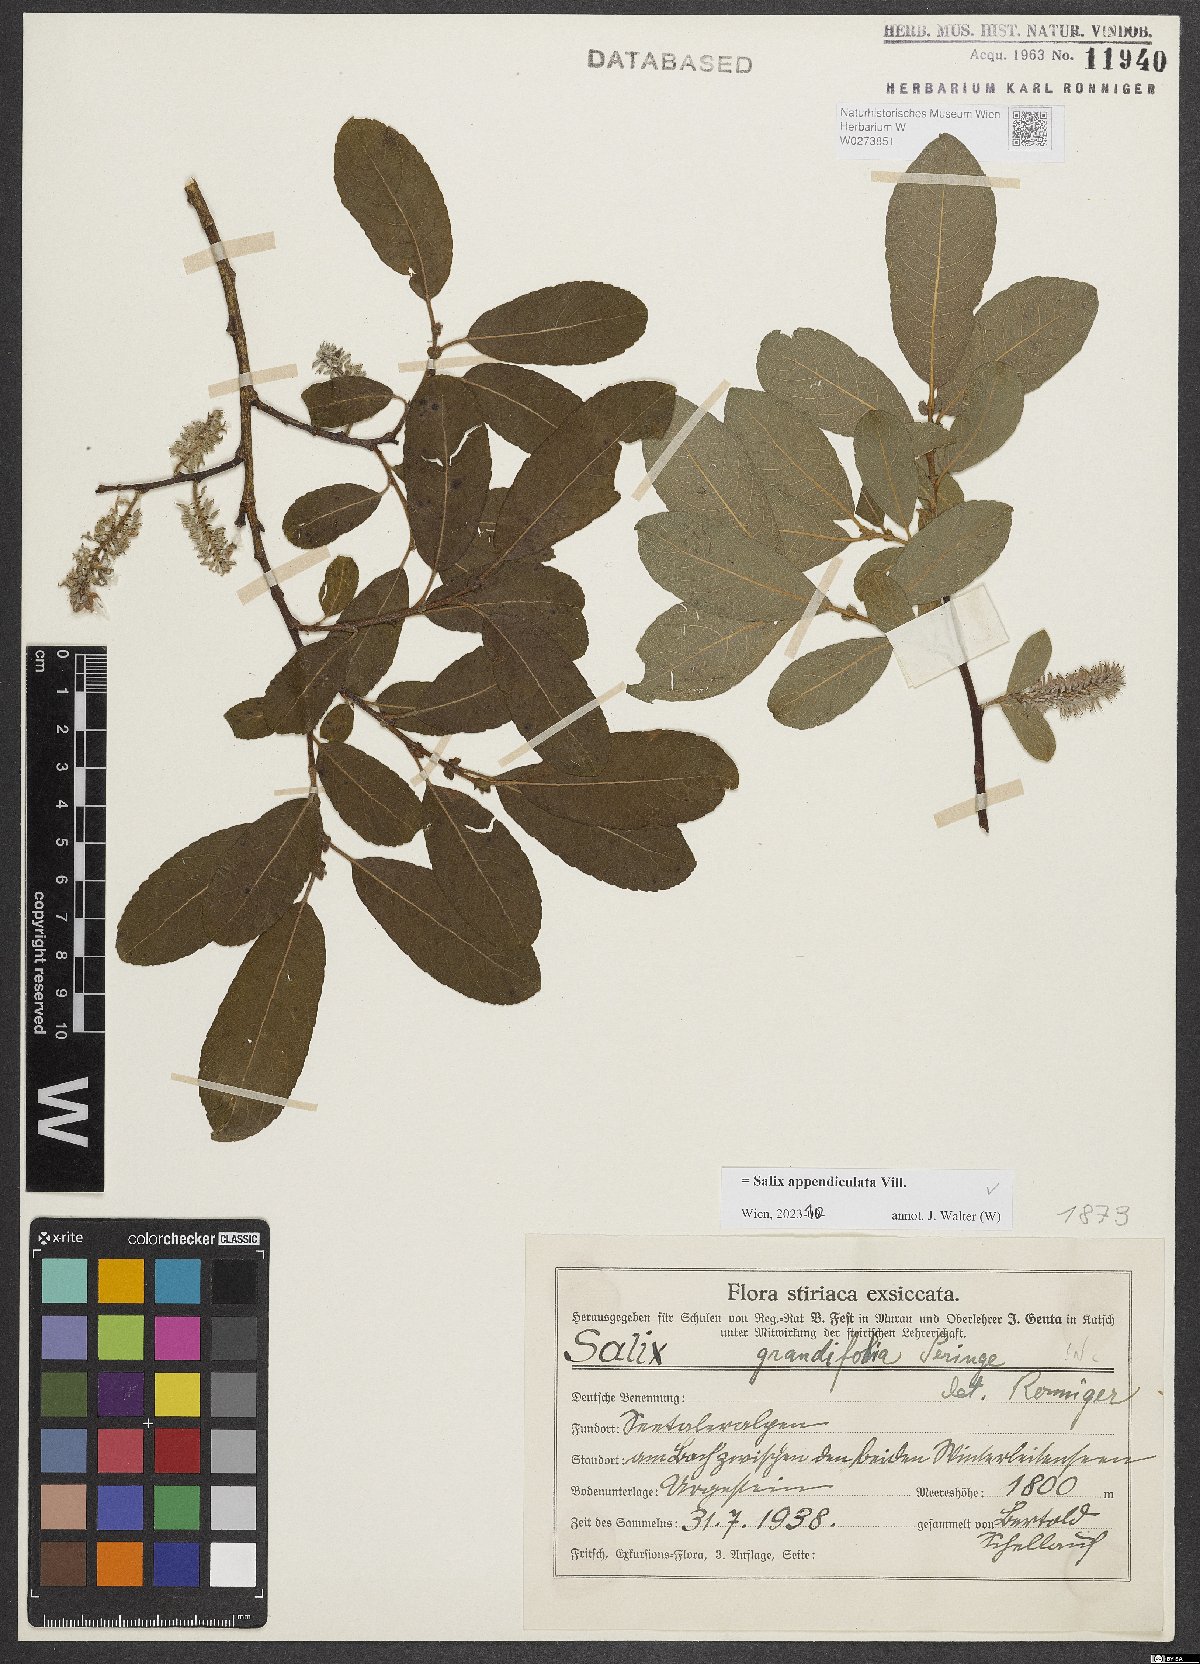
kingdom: Plantae
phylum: Tracheophyta
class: Magnoliopsida
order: Malpighiales
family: Salicaceae
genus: Salix
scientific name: Salix appendiculata
